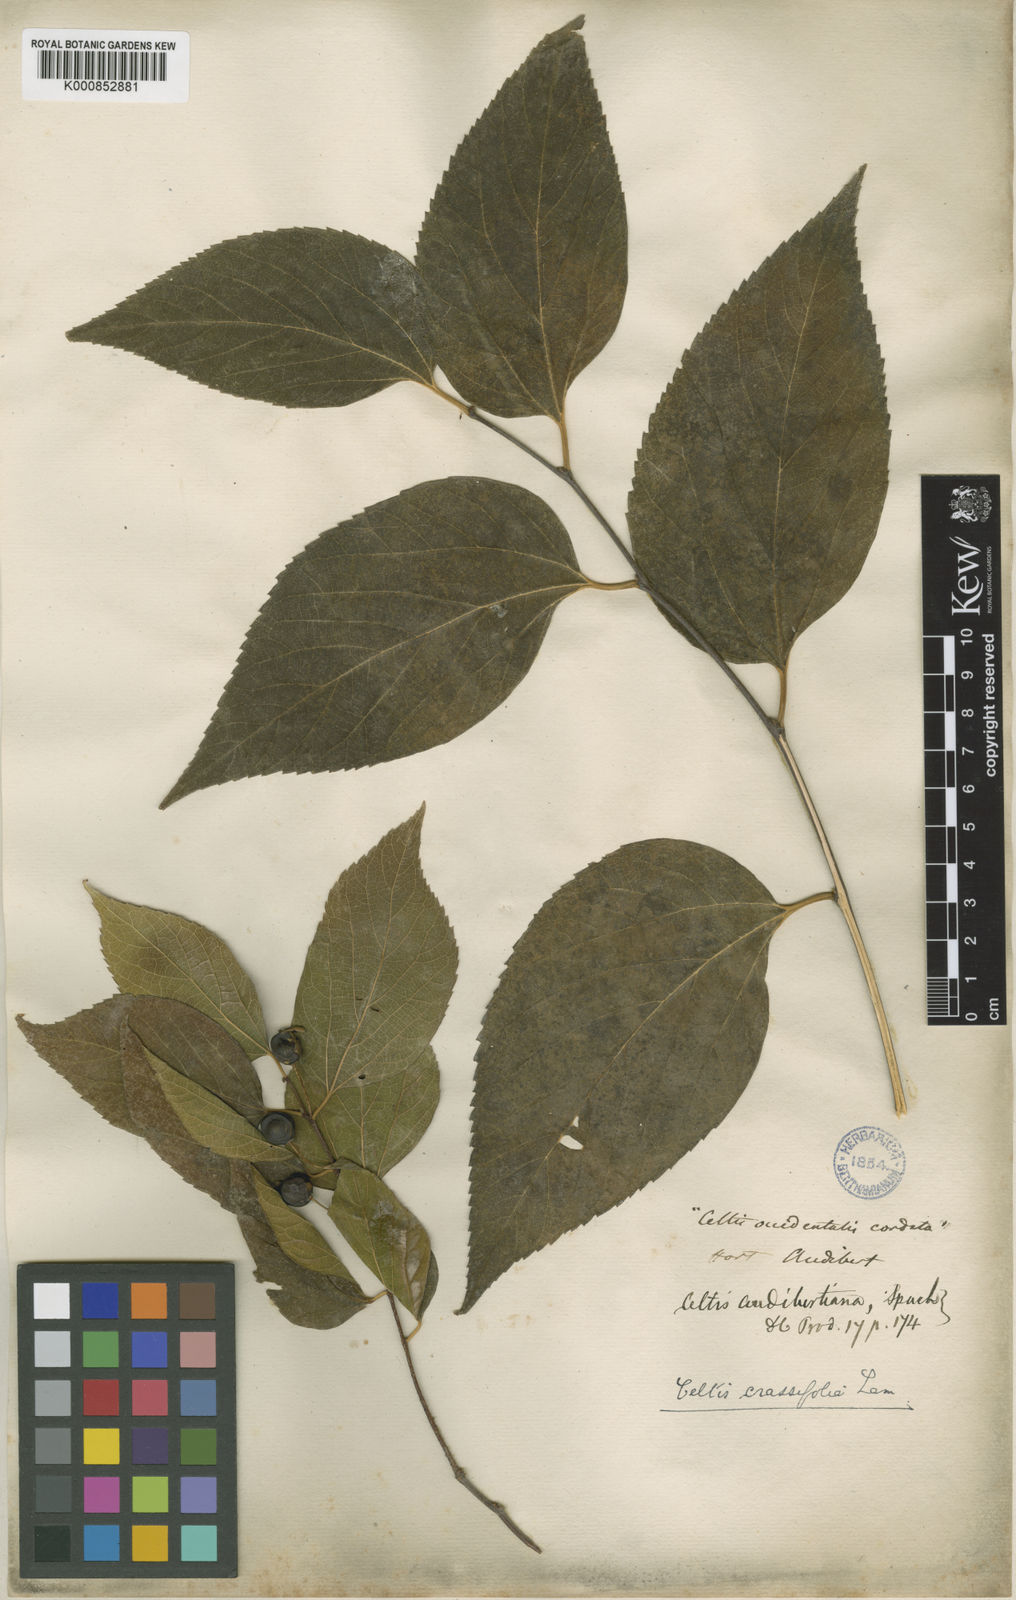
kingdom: Plantae
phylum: Tracheophyta
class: Magnoliopsida
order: Rosales
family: Cannabaceae
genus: Celtis
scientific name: Celtis occidentalis
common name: Common hackberry
